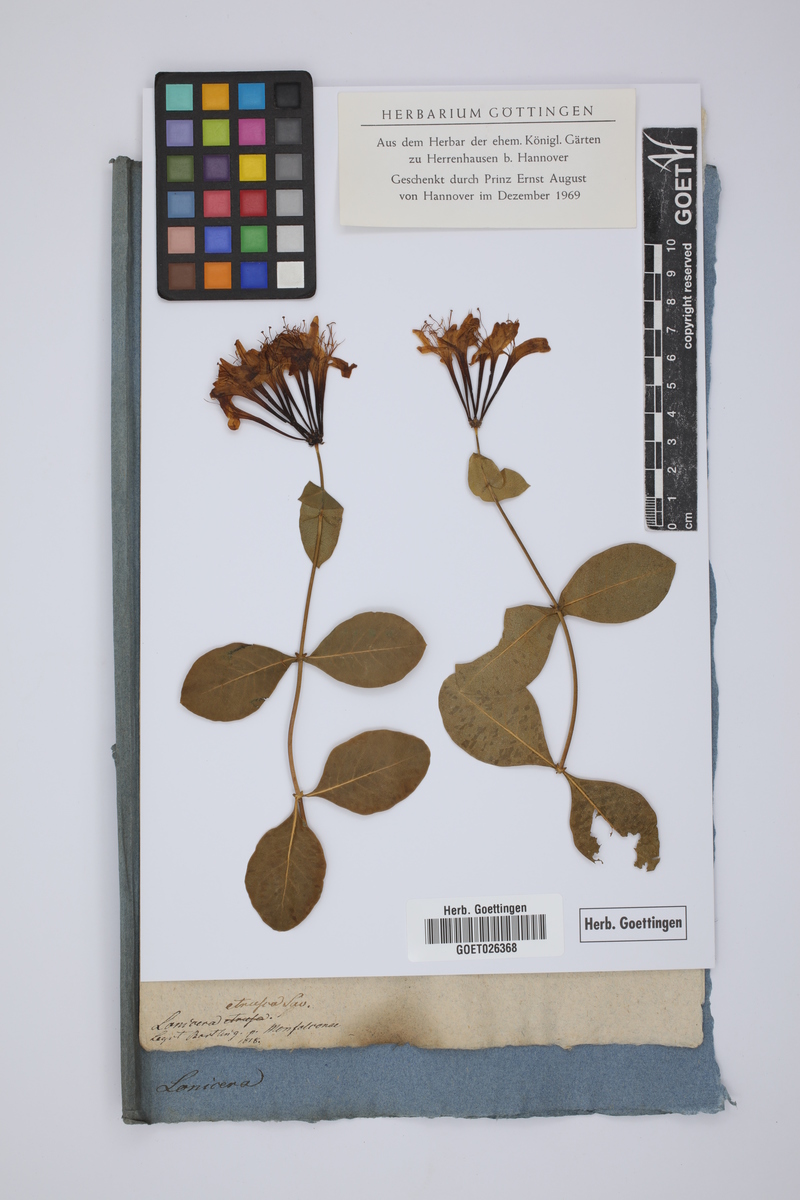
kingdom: Plantae
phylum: Tracheophyta
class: Magnoliopsida
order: Dipsacales
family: Caprifoliaceae
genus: Lonicera
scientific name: Lonicera etrusca
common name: Etruscan honeysuckle
